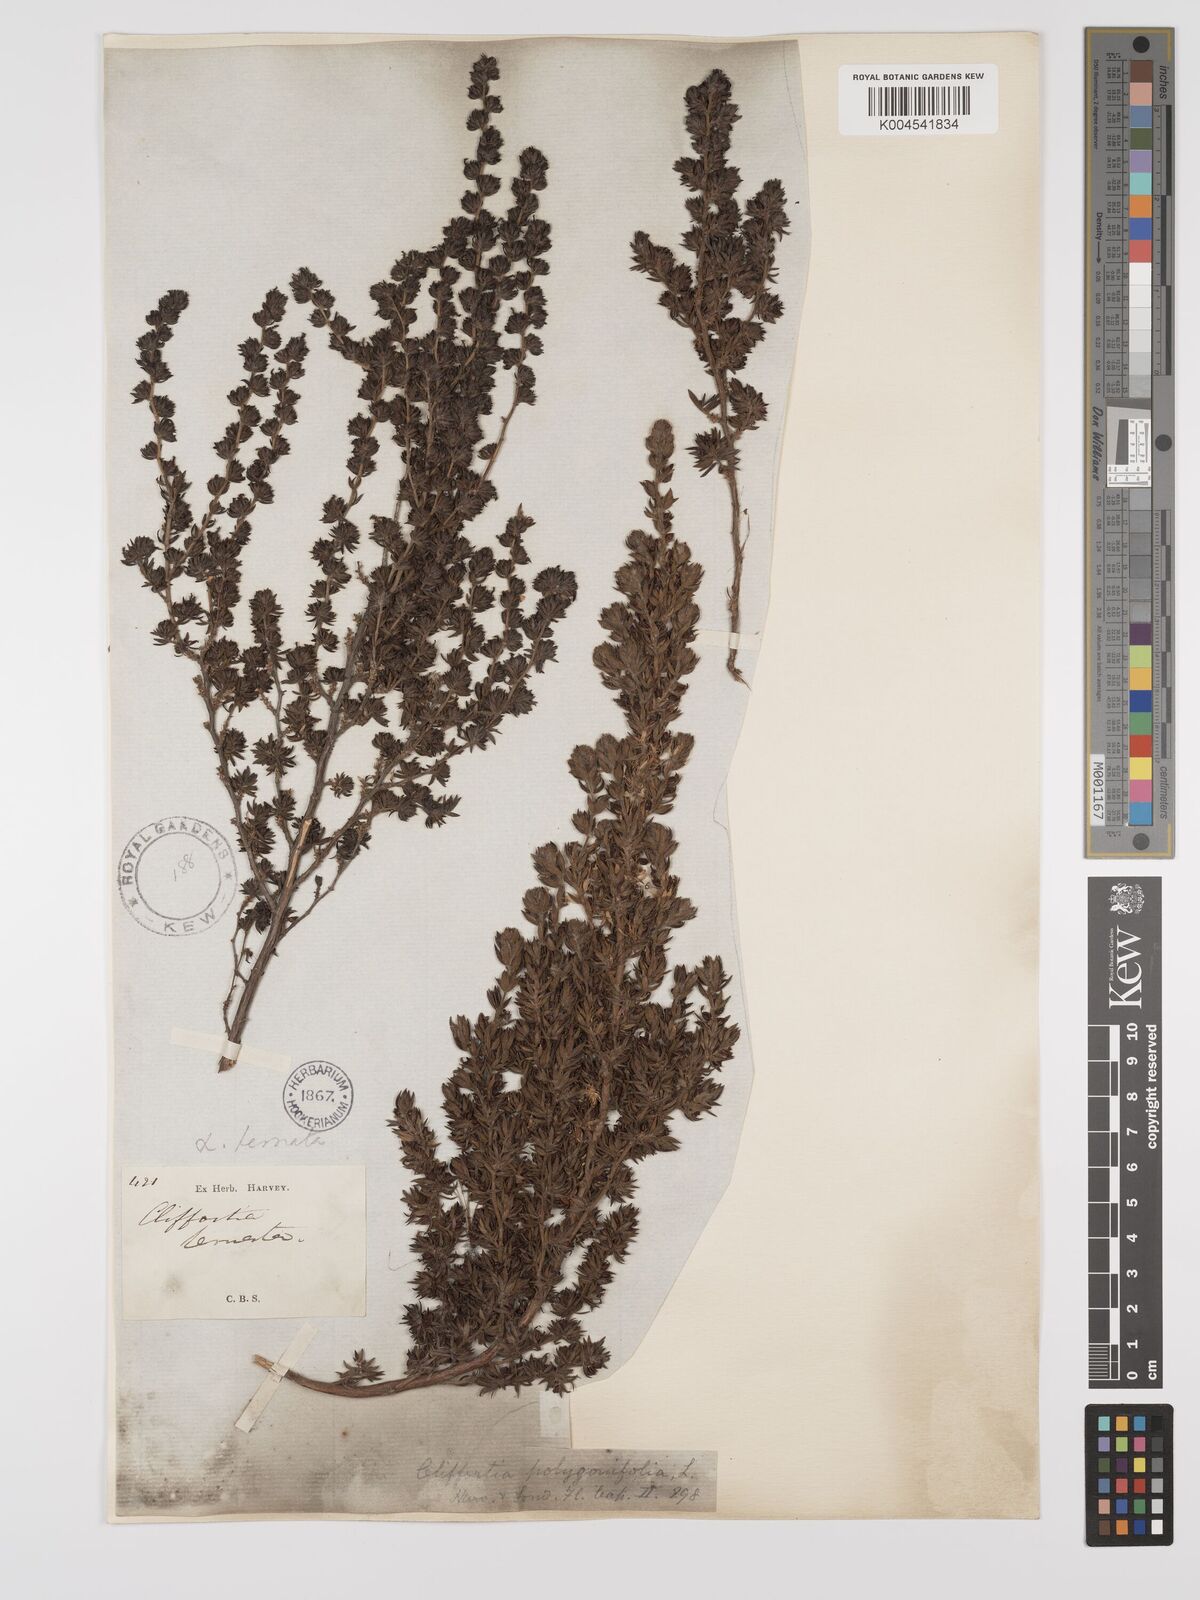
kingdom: Plantae
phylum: Tracheophyta
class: Magnoliopsida
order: Rosales
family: Rosaceae
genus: Cliffortia
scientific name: Cliffortia polygonifolia
